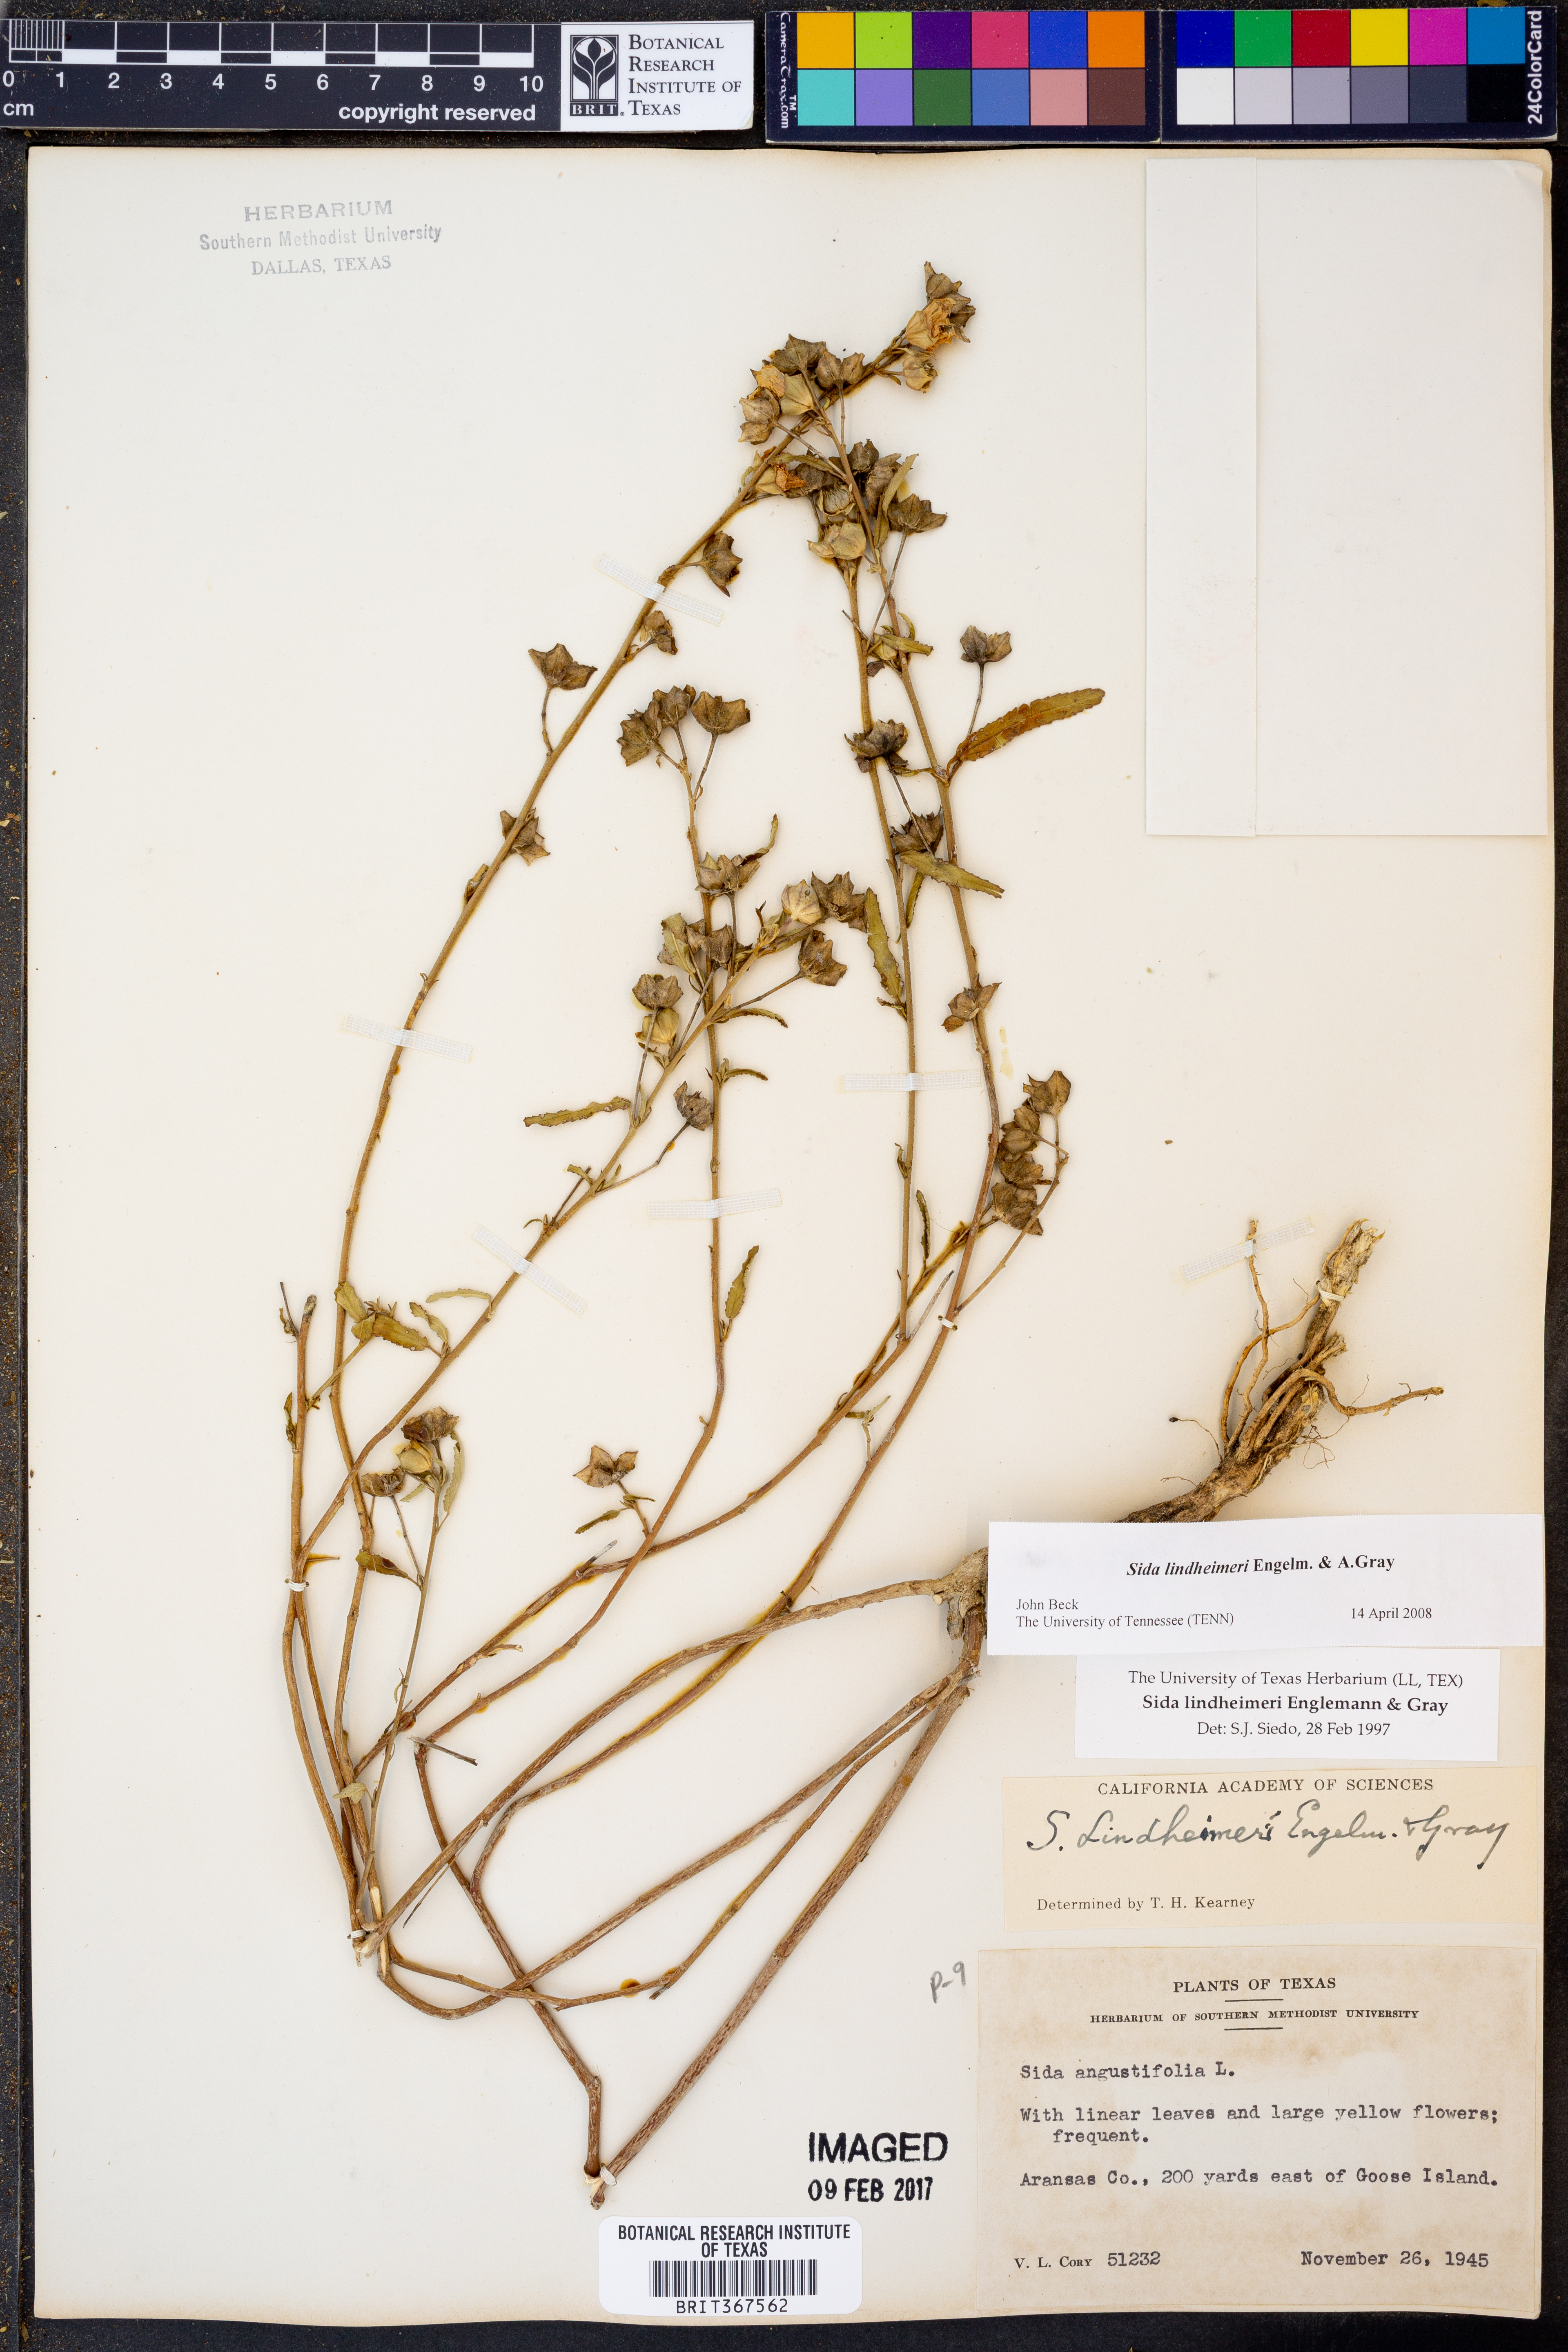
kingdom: Plantae
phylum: Tracheophyta
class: Magnoliopsida
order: Malvales
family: Malvaceae
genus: Sida
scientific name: Sida lindheimeri
